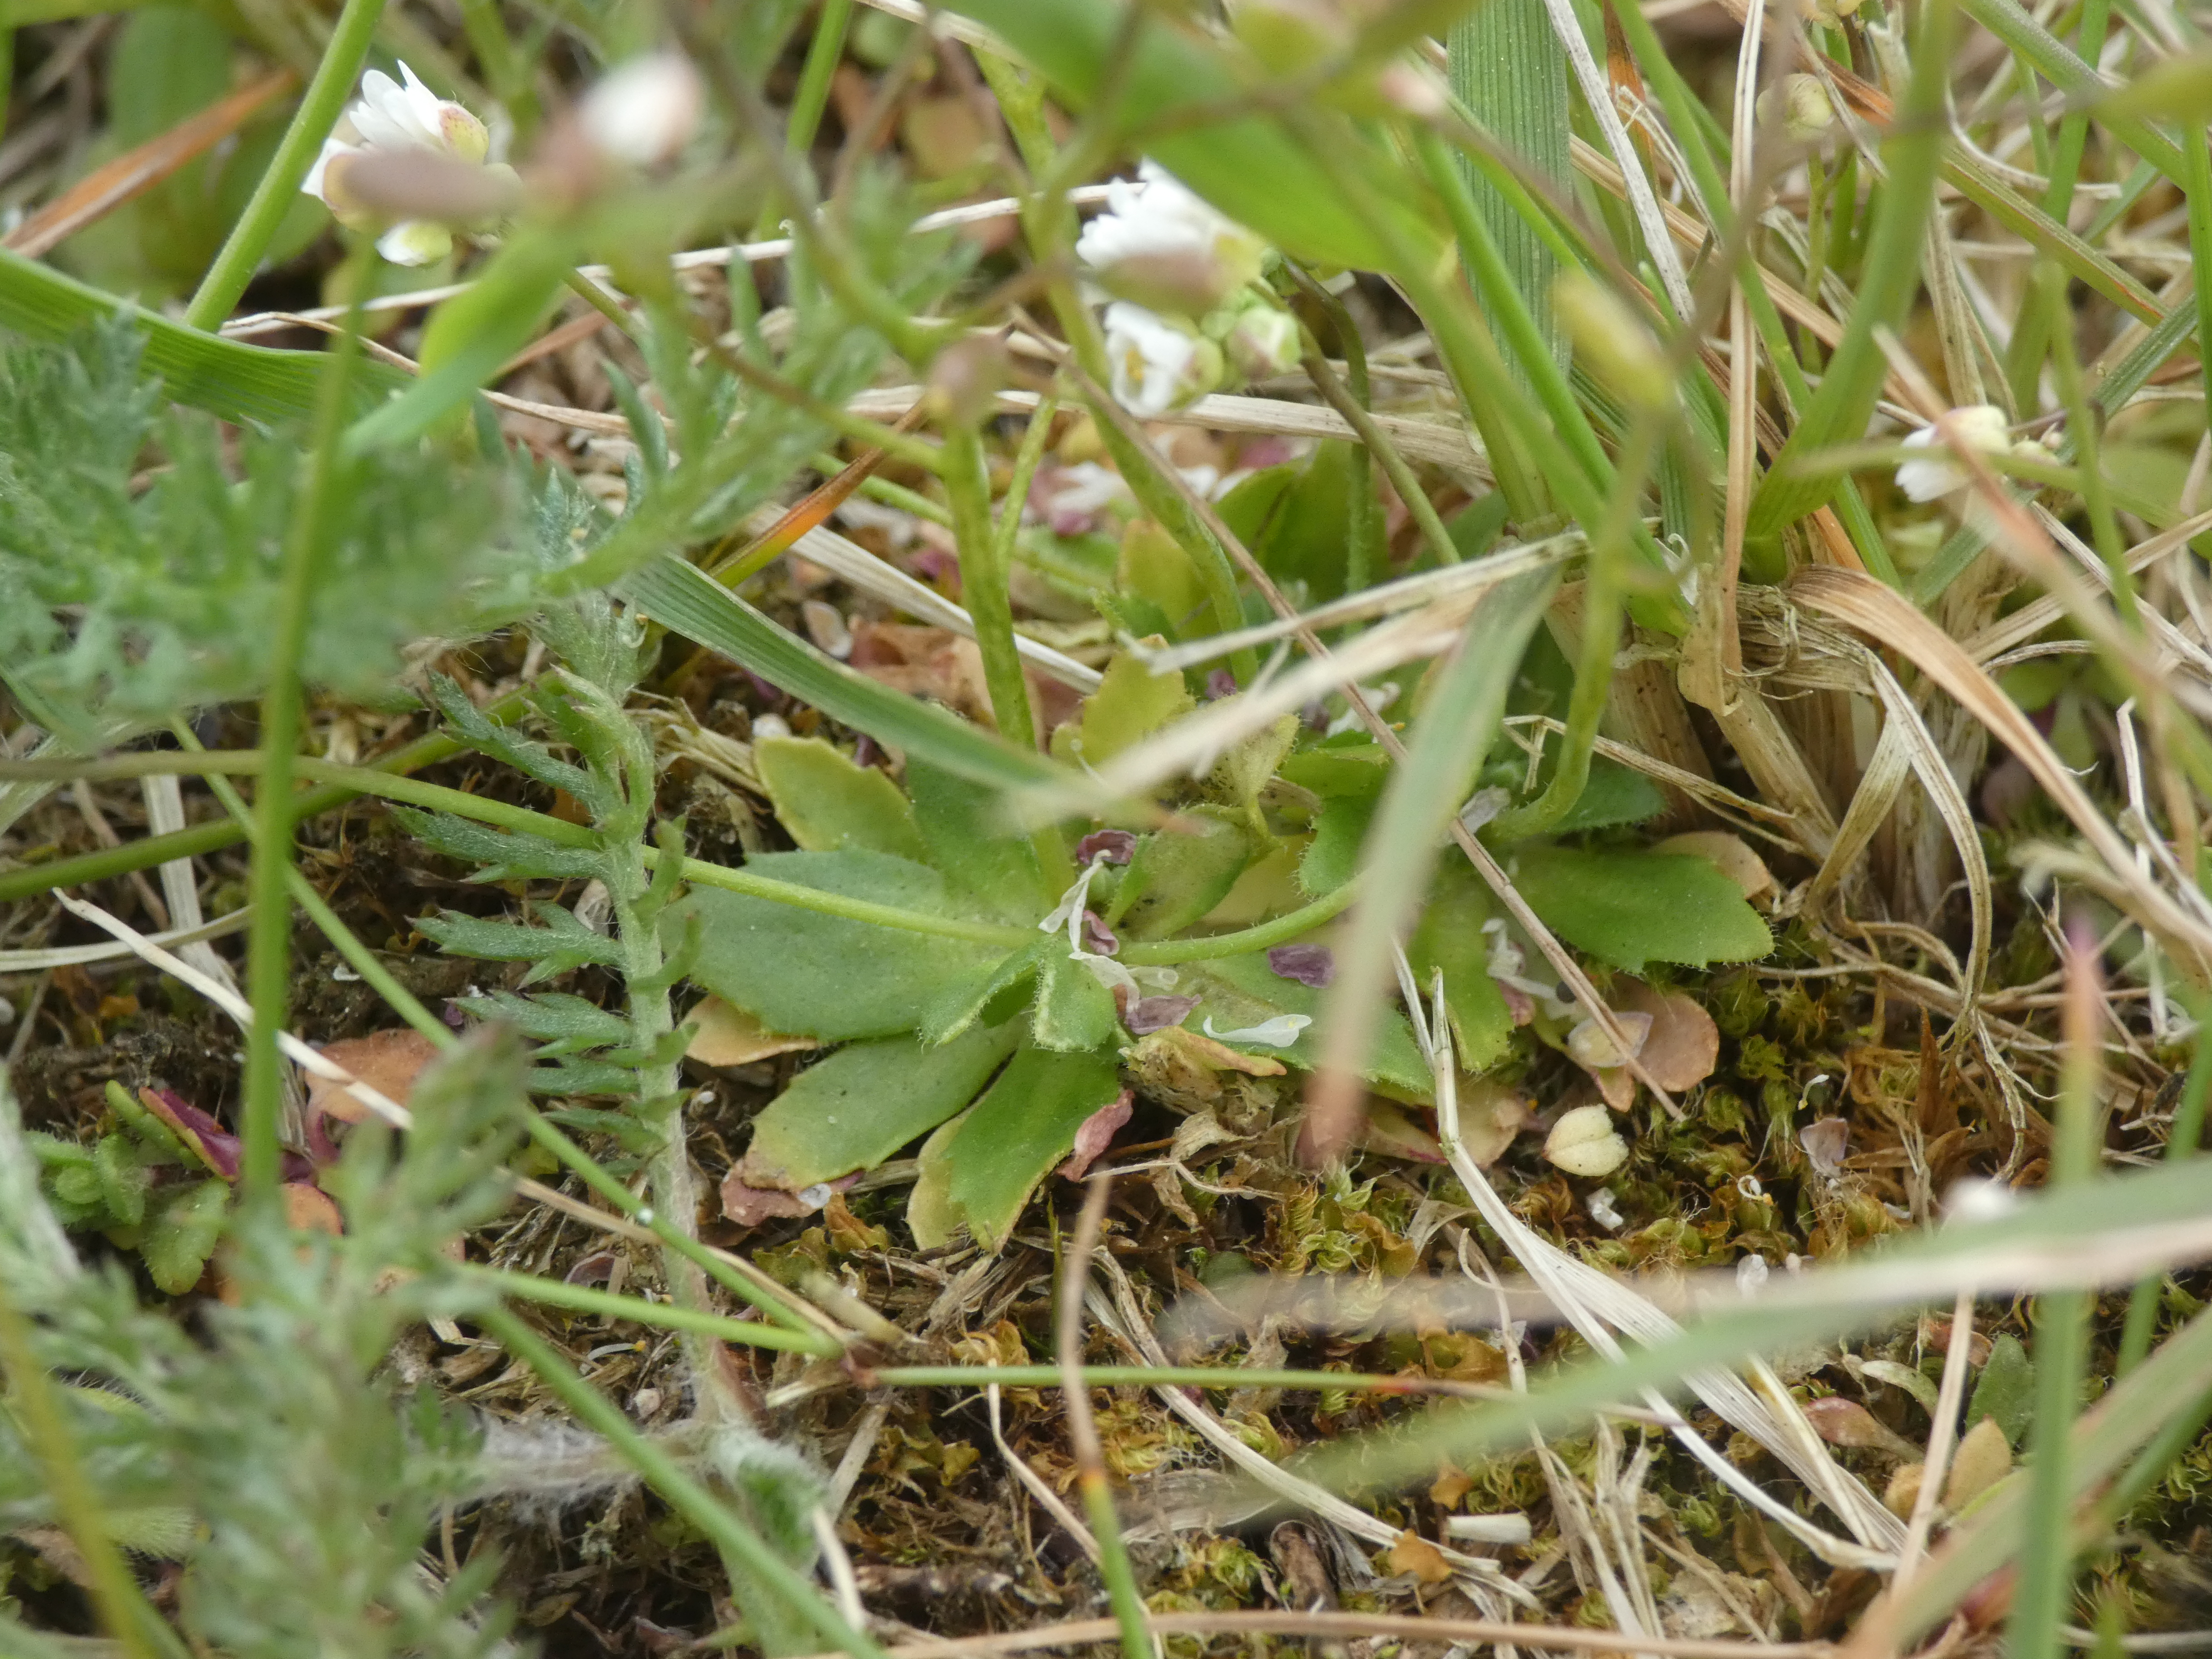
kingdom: Plantae
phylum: Tracheophyta
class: Magnoliopsida
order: Brassicales
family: Brassicaceae
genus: Draba
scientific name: Draba verna
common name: Vår-gæslingeblomst
